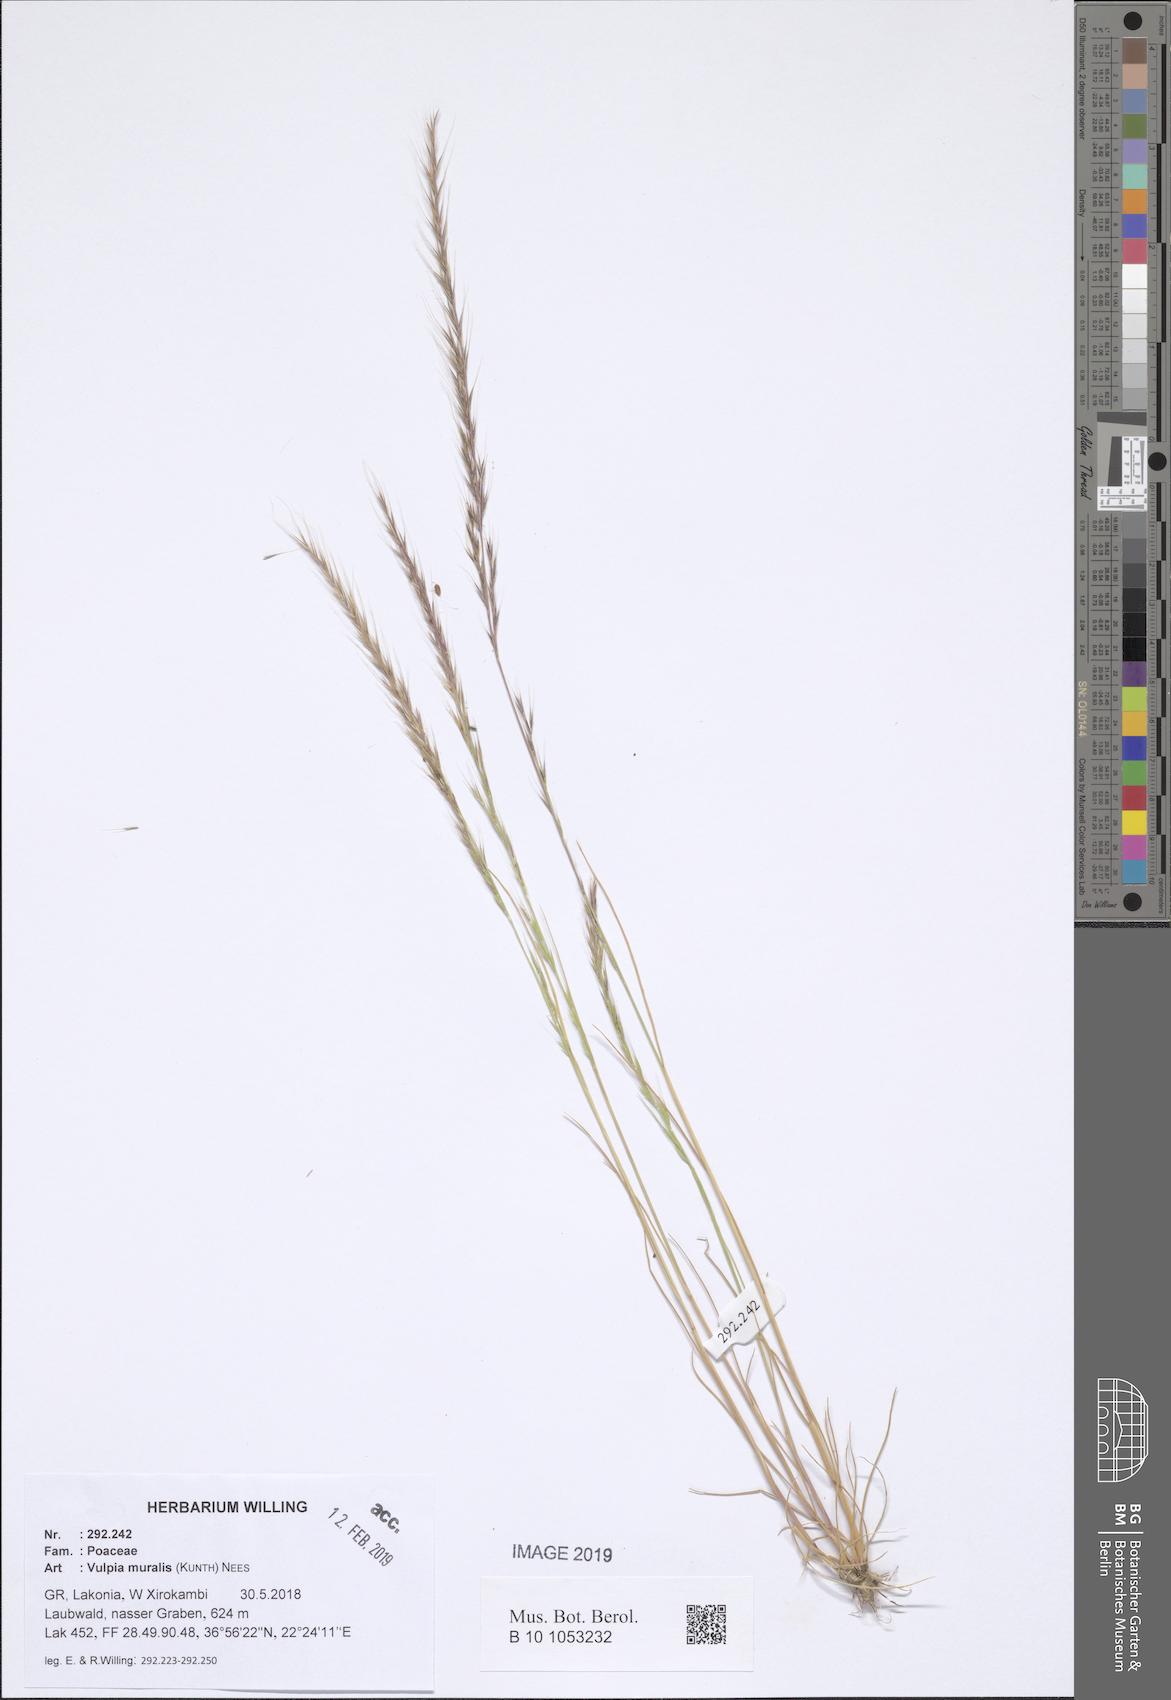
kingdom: Plantae
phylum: Tracheophyta
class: Liliopsida
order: Poales
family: Poaceae
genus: Festuca
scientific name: Festuca muralis
